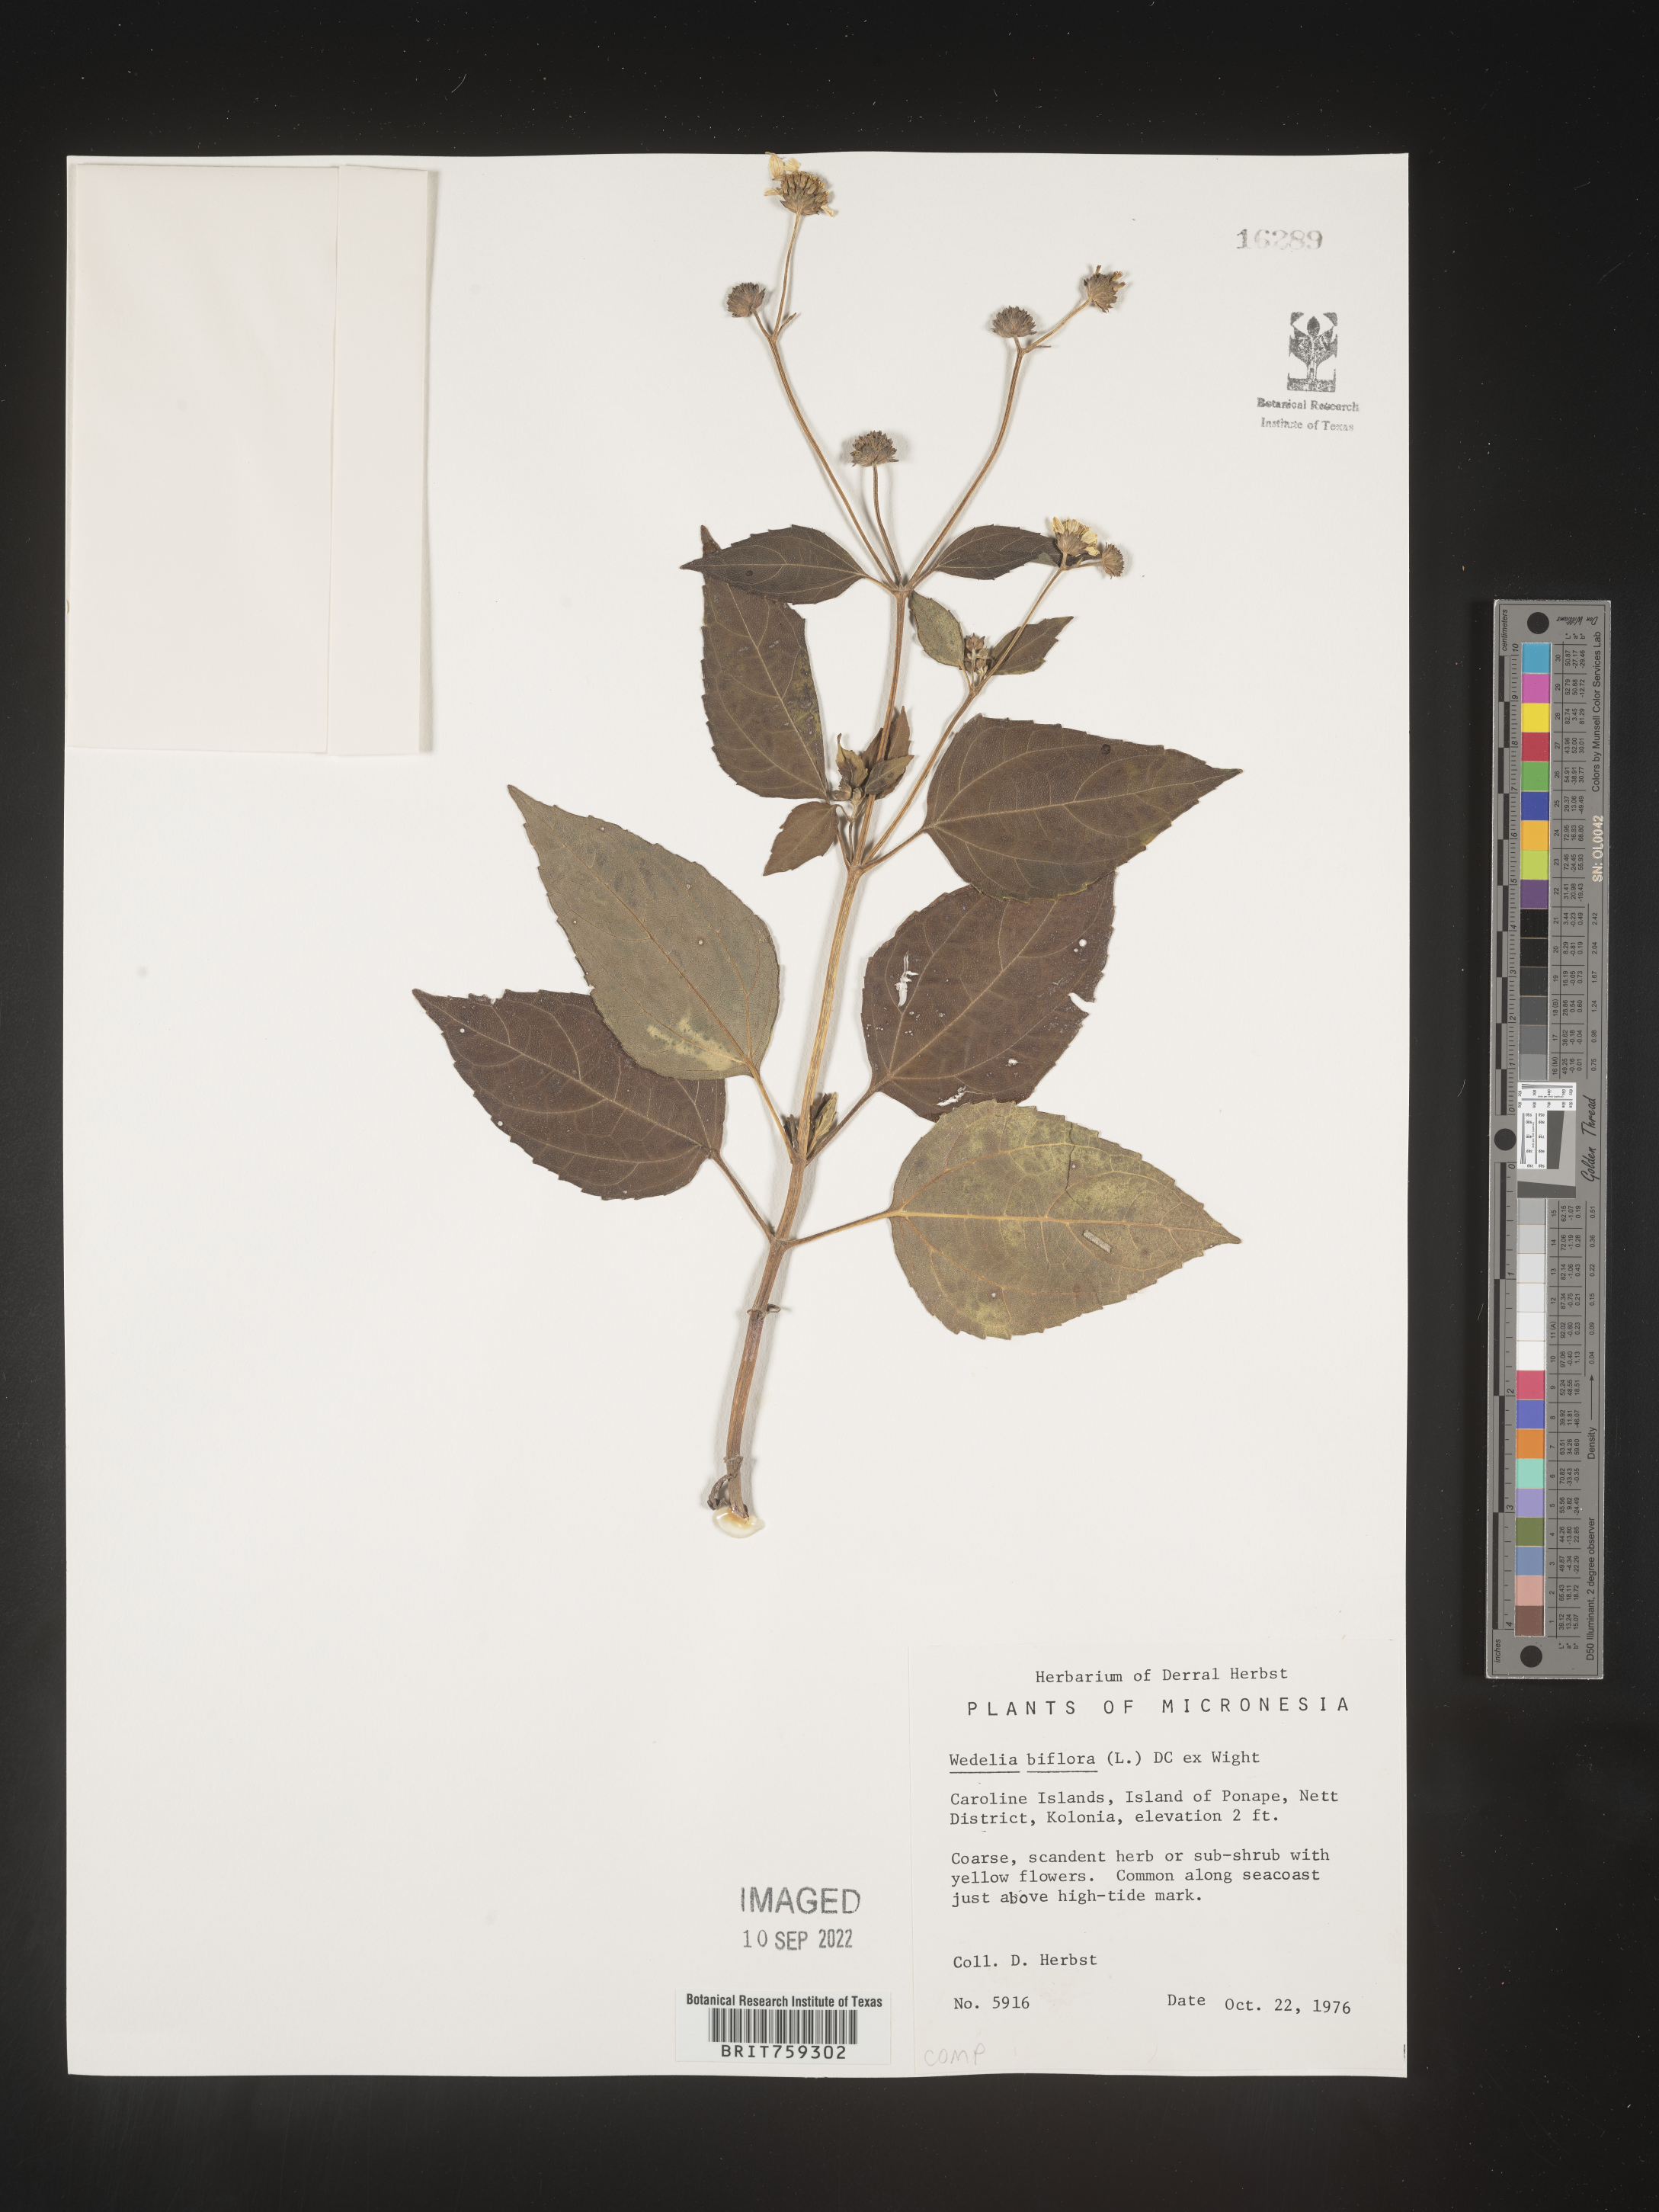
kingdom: Plantae
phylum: Tracheophyta
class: Magnoliopsida
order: Asterales
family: Asteraceae
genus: Wedelia
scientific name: Wedelia
